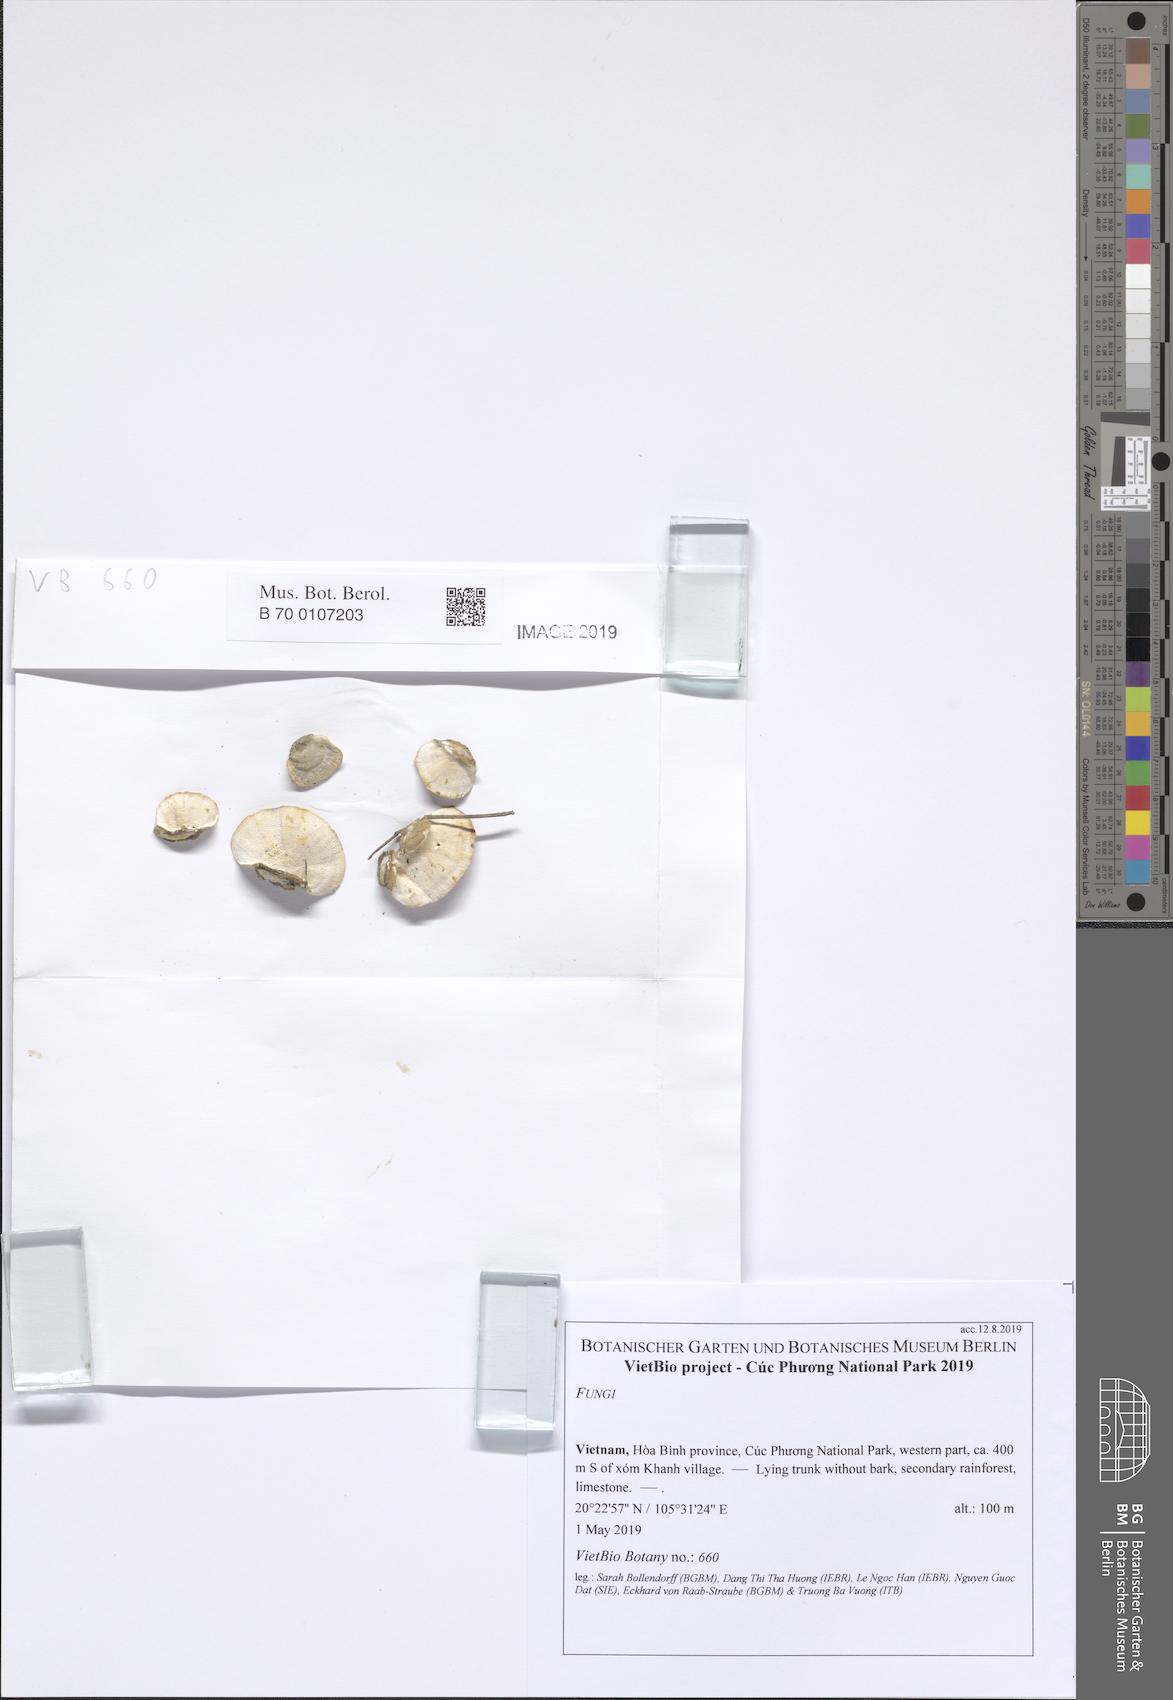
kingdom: Fungi
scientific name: Fungi
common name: Fungi
